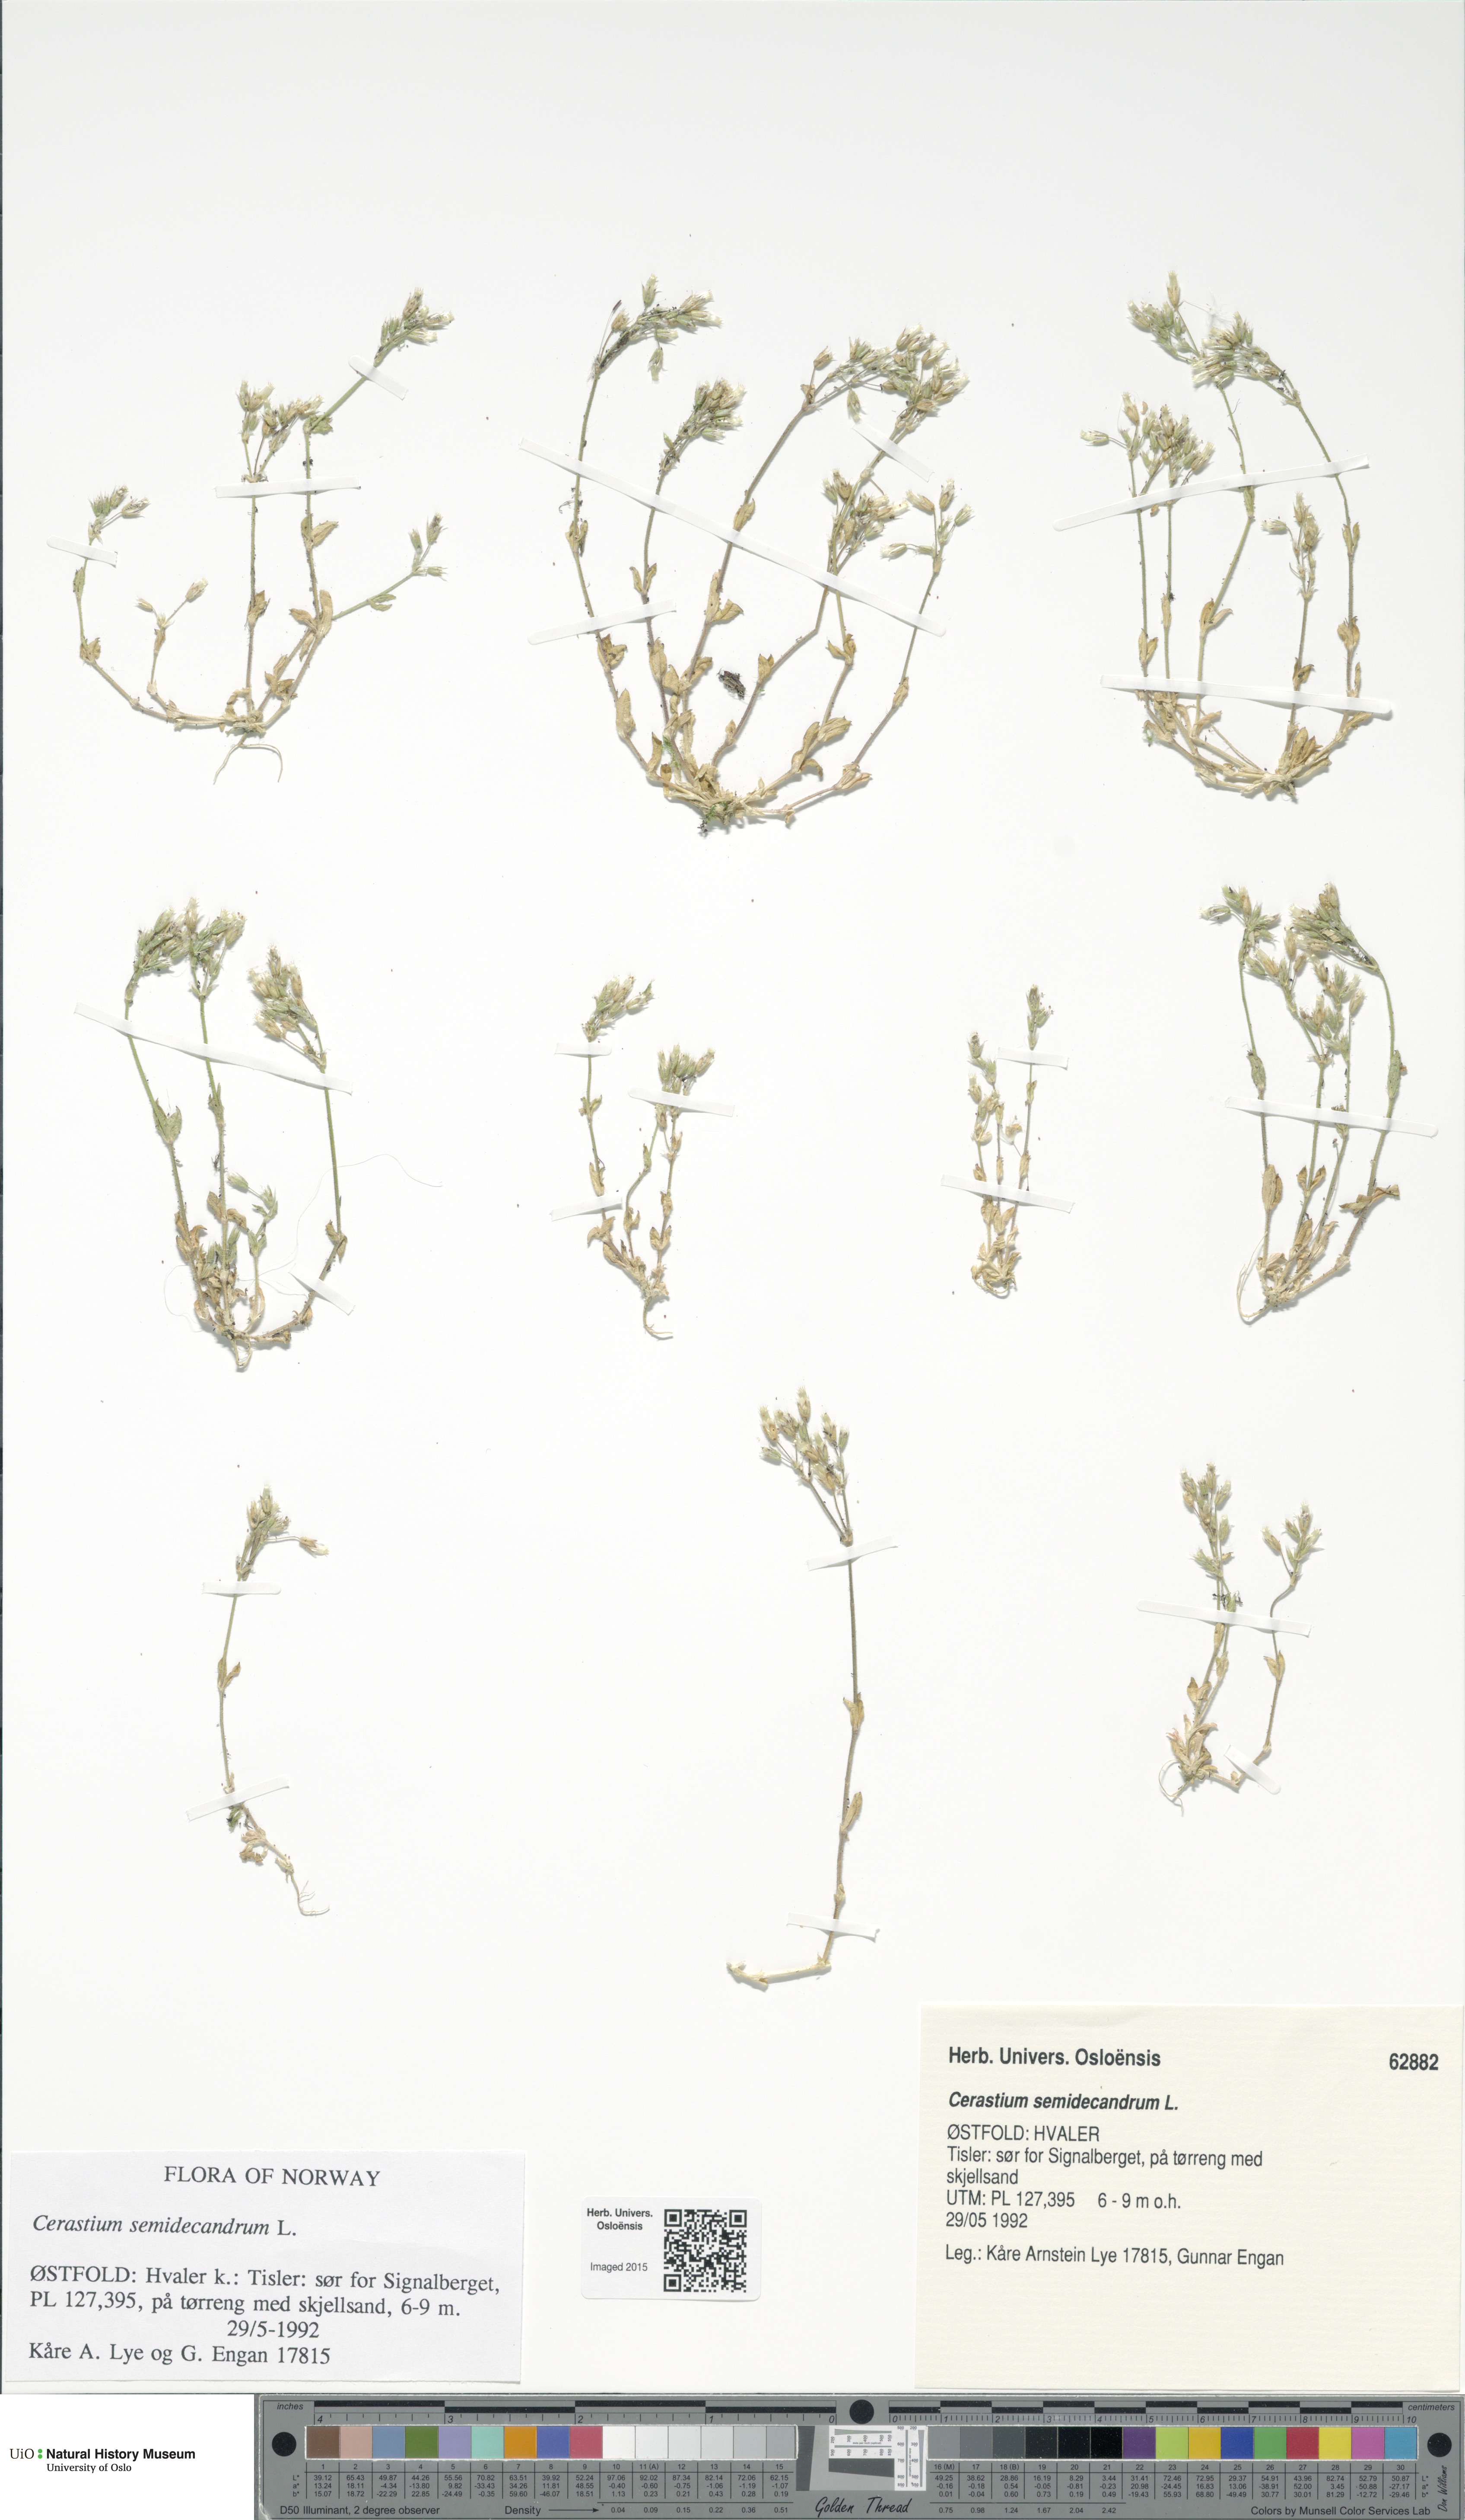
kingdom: Plantae
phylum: Tracheophyta
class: Magnoliopsida
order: Caryophyllales
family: Caryophyllaceae
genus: Cerastium
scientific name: Cerastium semidecandrum
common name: Little mouse-ear
